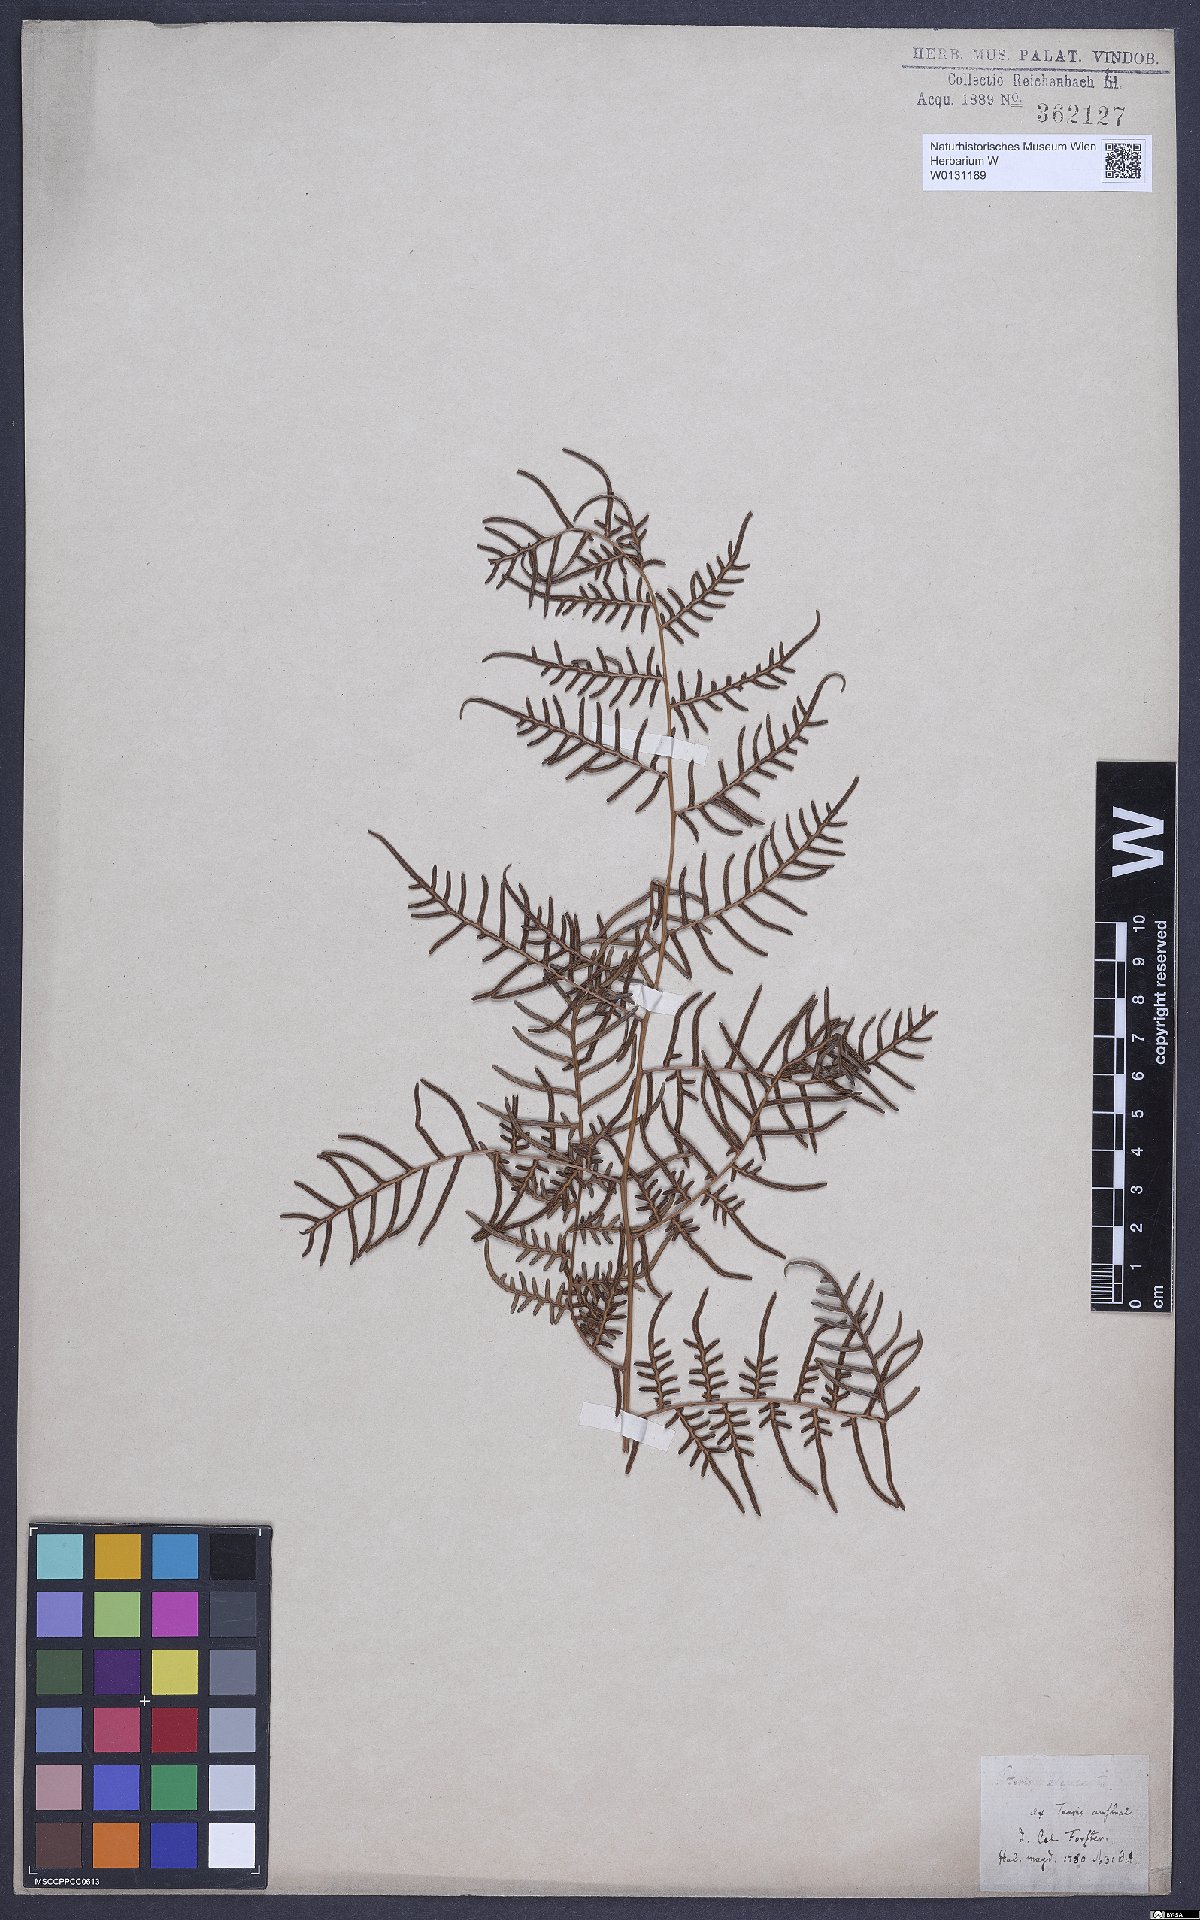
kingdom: Plantae
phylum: Tracheophyta
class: Polypodiopsida
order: Polypodiales
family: Dennstaedtiaceae
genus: Pteridium
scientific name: Pteridium esculentum
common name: Bracken fern
